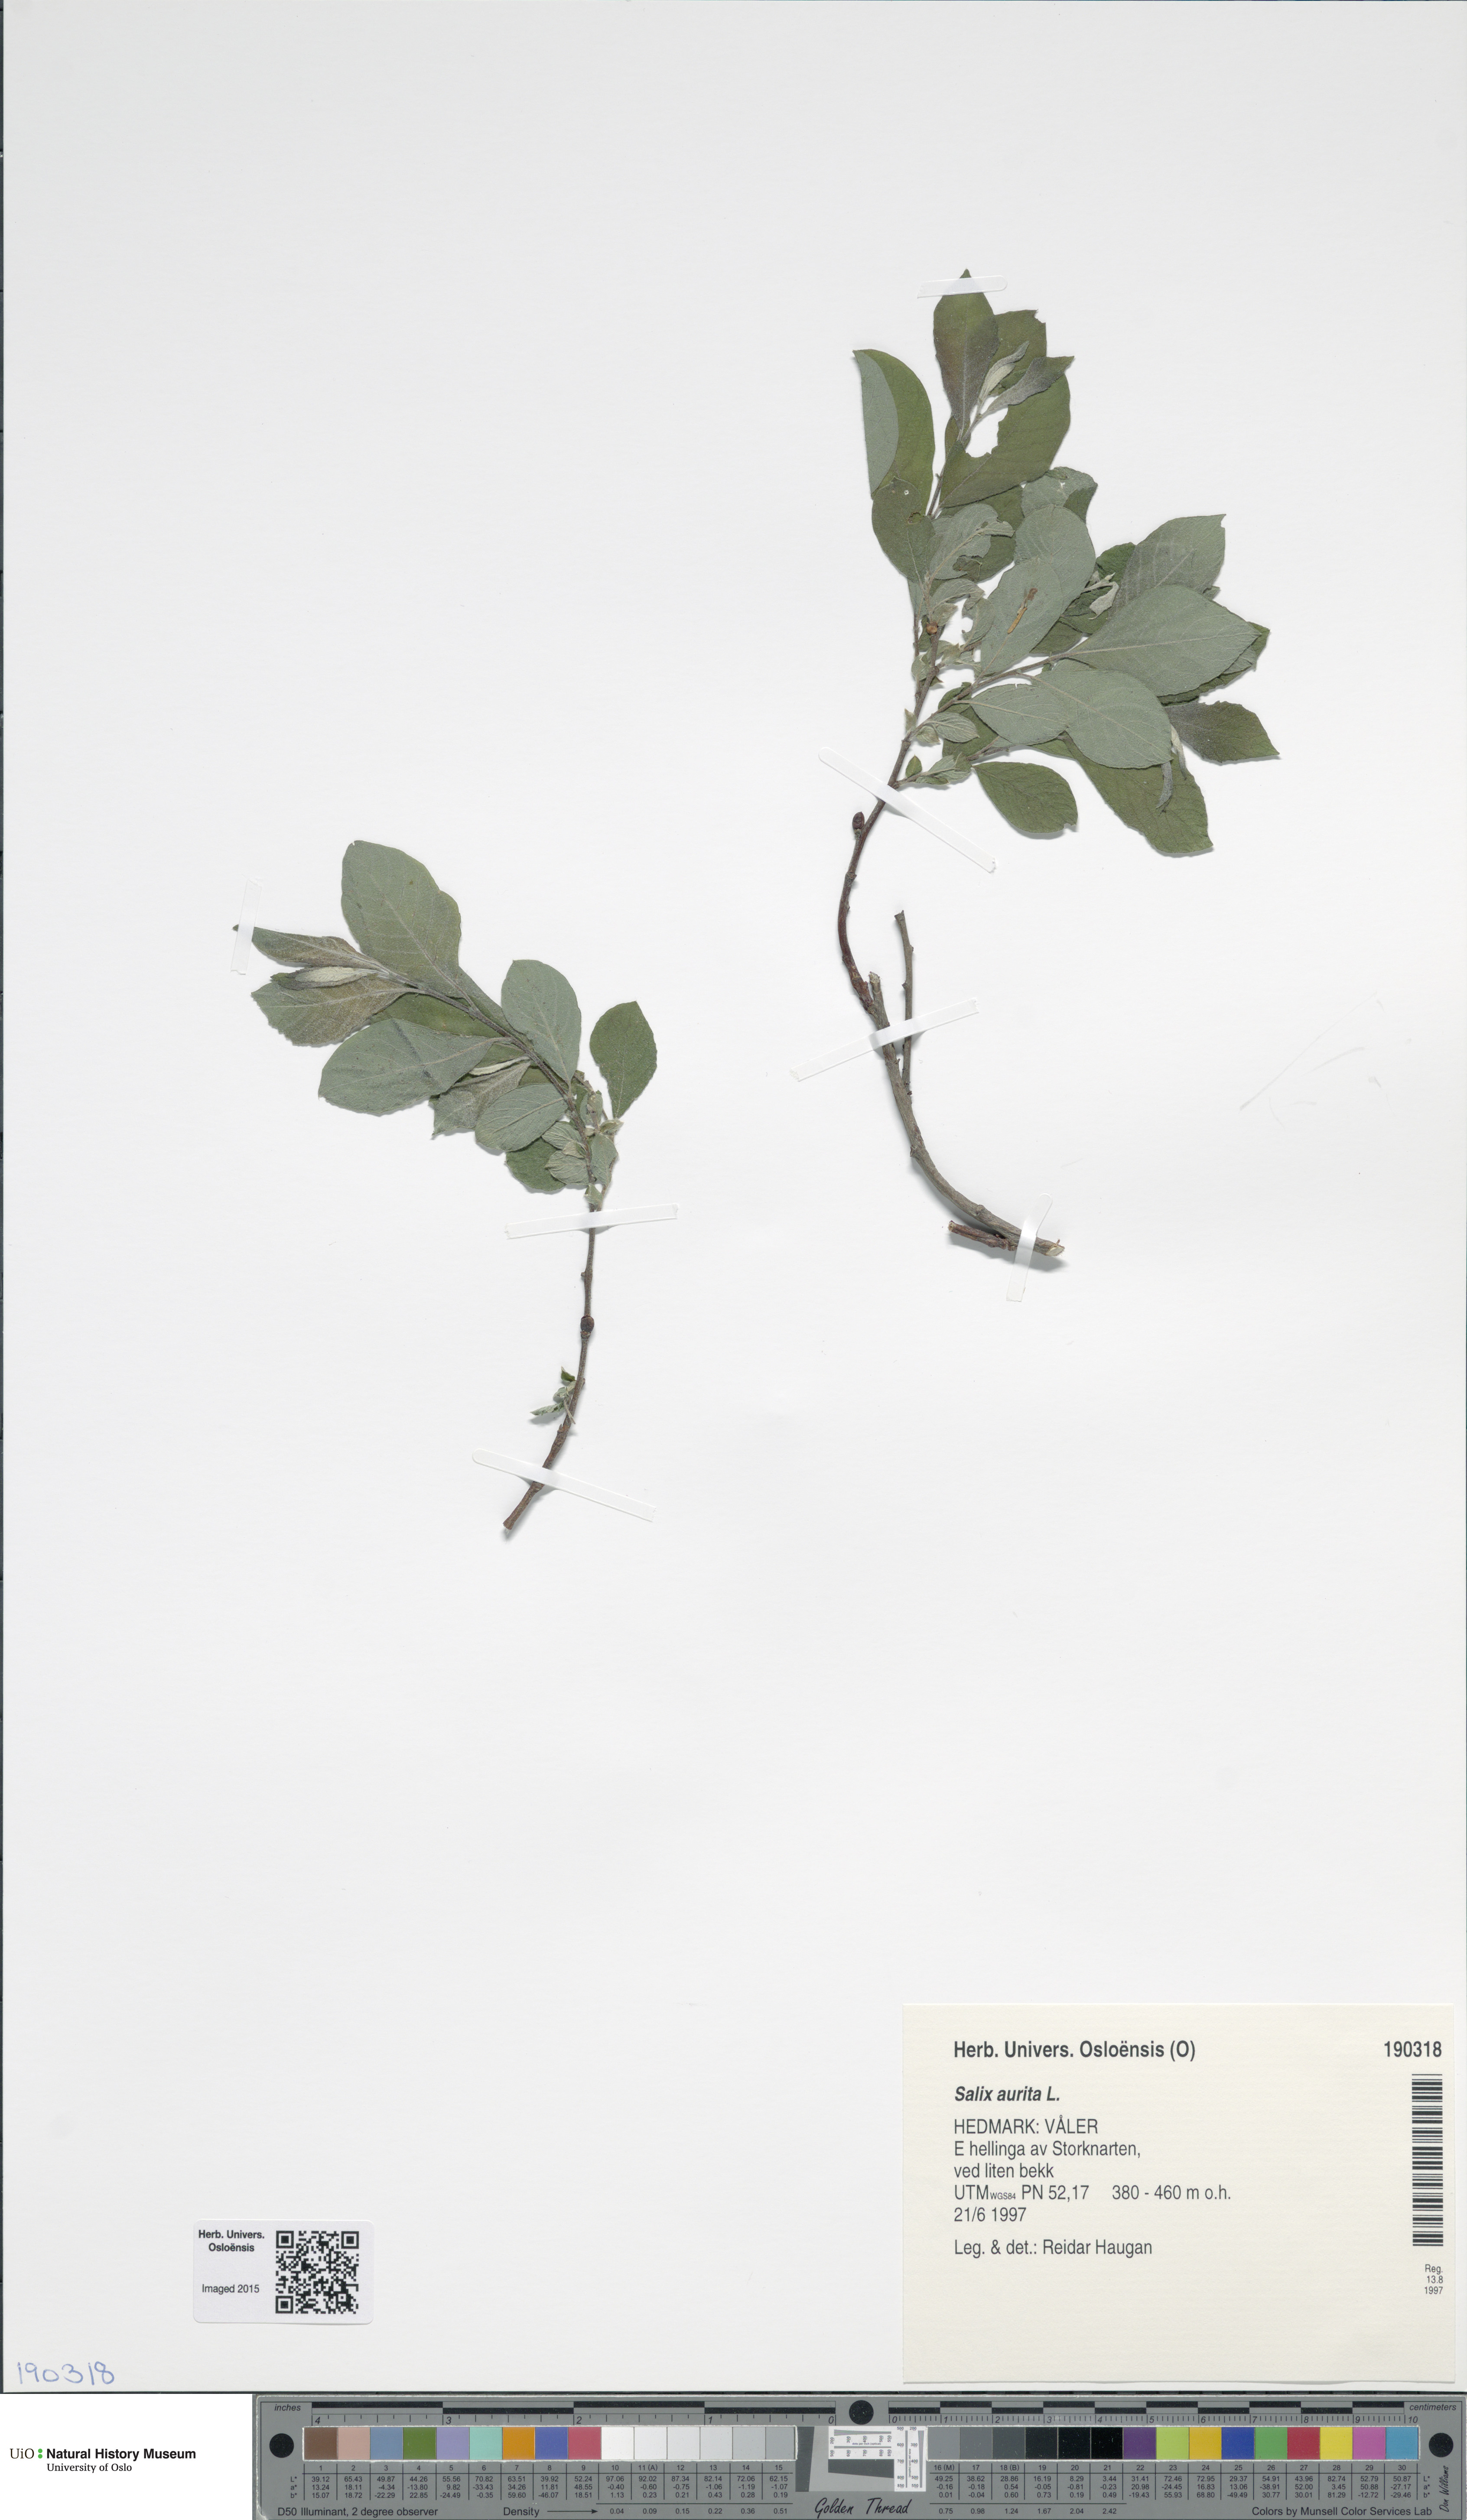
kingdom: Plantae
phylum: Tracheophyta
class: Magnoliopsida
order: Malpighiales
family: Salicaceae
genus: Salix
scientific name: Salix aurita
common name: Eared willow
